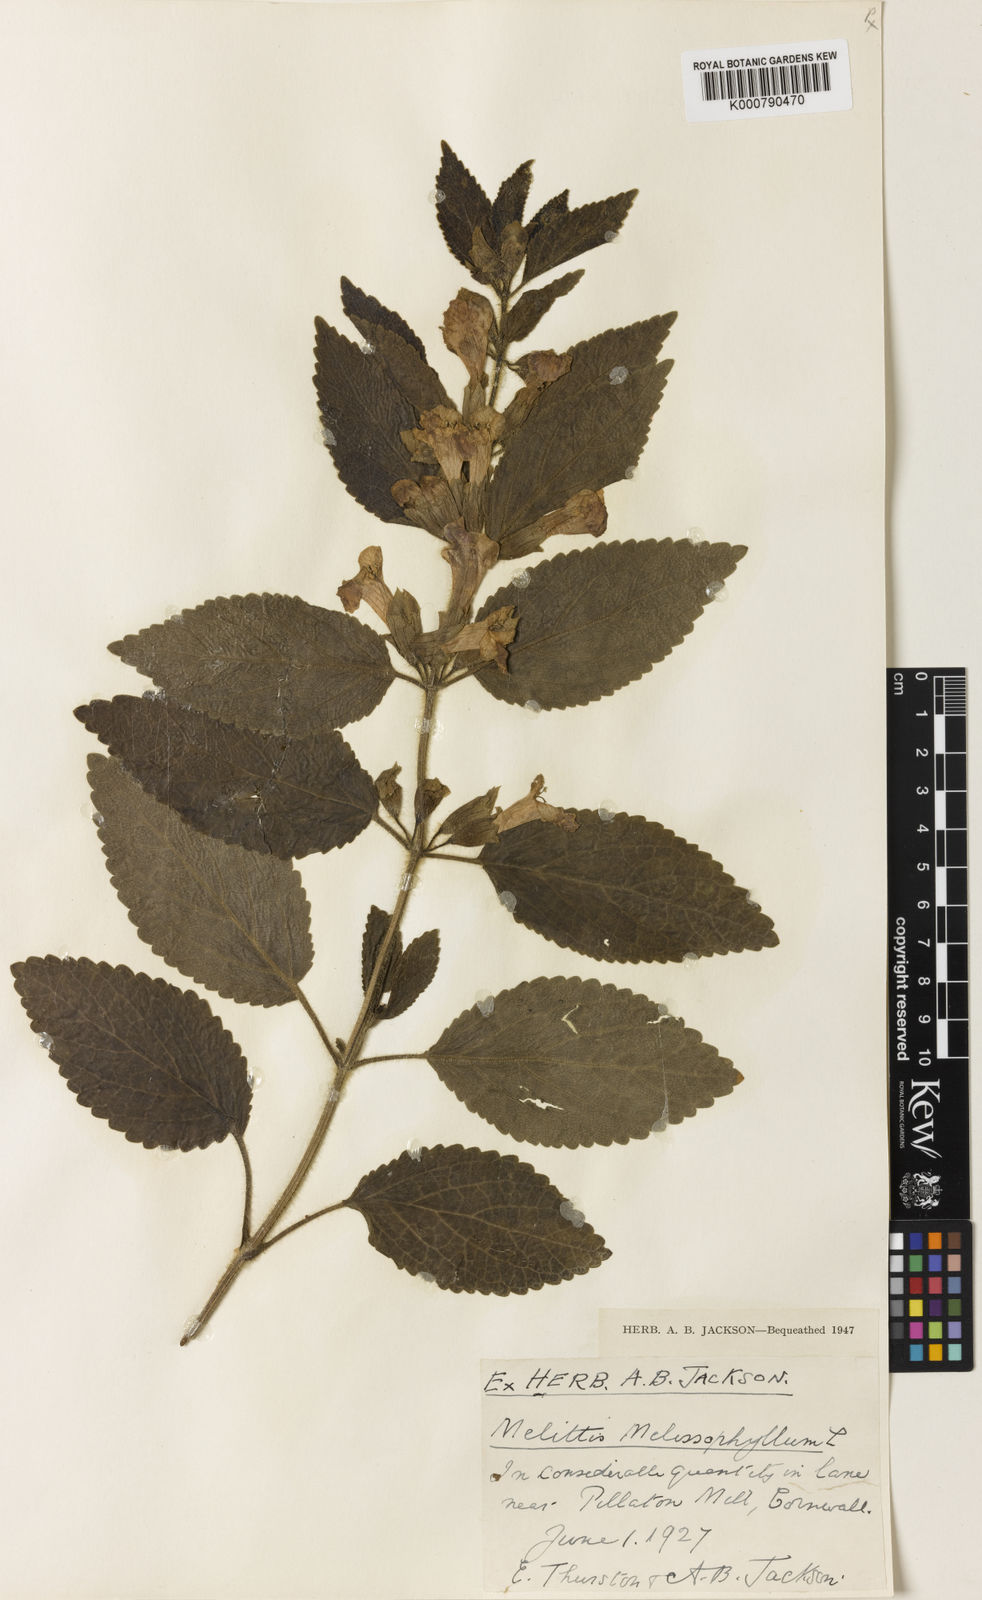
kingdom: Plantae
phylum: Tracheophyta
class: Magnoliopsida
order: Lamiales
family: Lamiaceae
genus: Melittis
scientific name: Melittis melissophyllum
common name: Bastard balm
